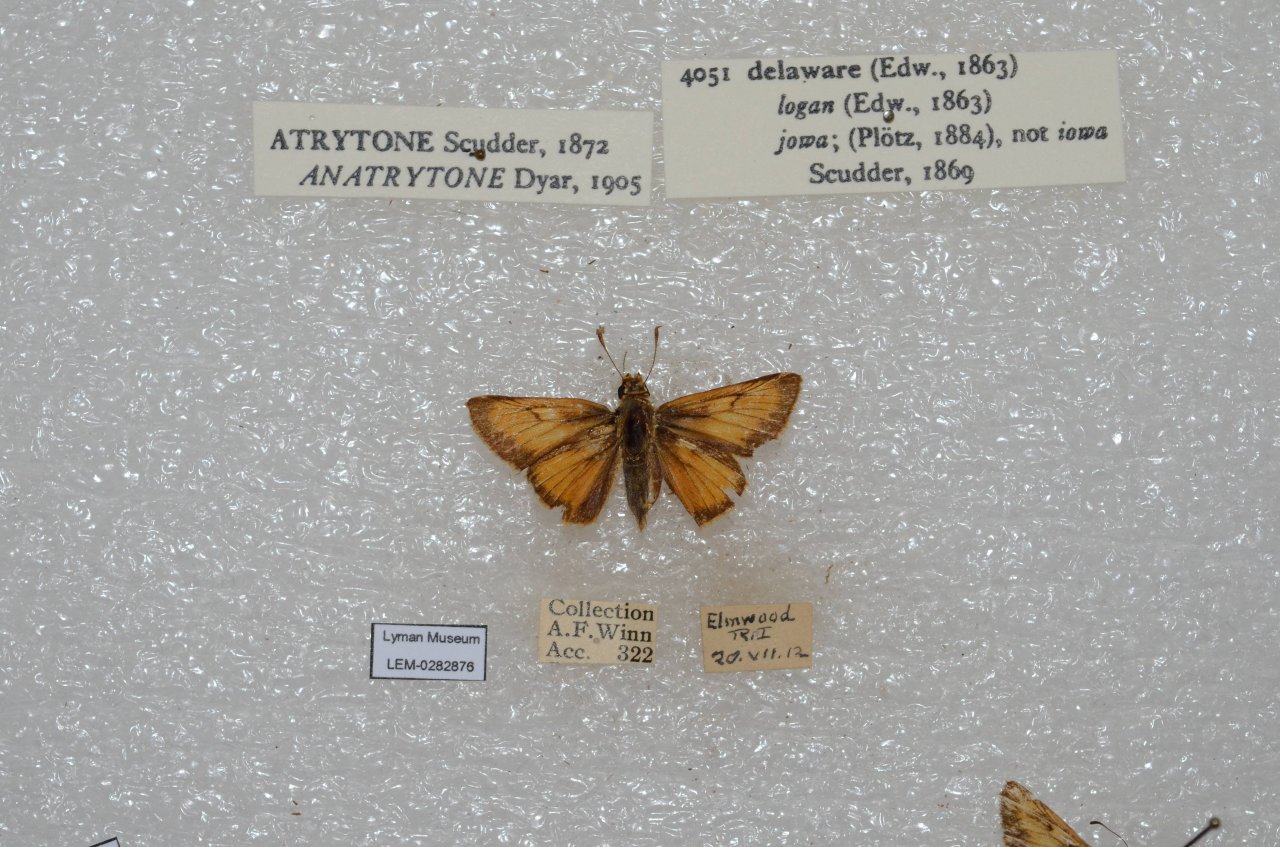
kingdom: Animalia
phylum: Arthropoda
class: Insecta
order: Lepidoptera
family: Hesperiidae
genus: Atrytone
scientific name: Atrytone delaware
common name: Delaware Skipper
